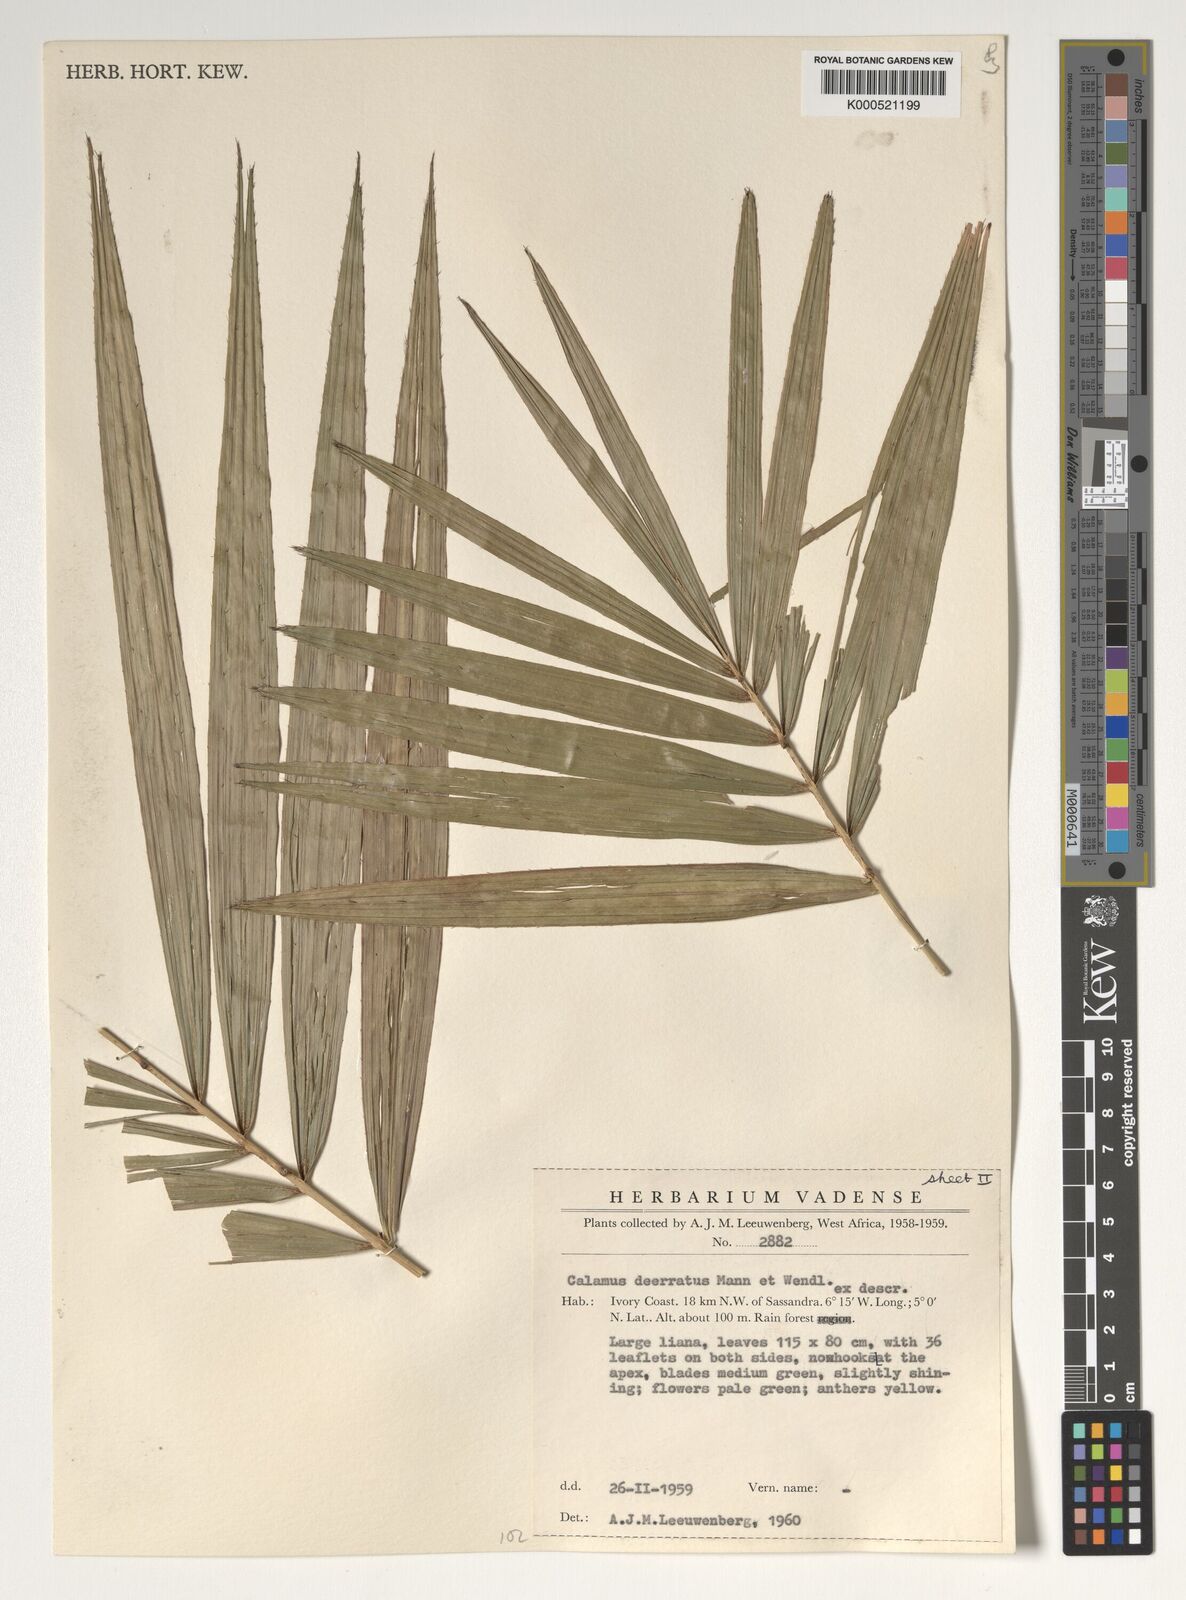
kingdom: Plantae
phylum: Tracheophyta
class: Liliopsida
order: Arecales
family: Arecaceae
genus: Calamus
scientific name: Calamus deerratus
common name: Rattan
